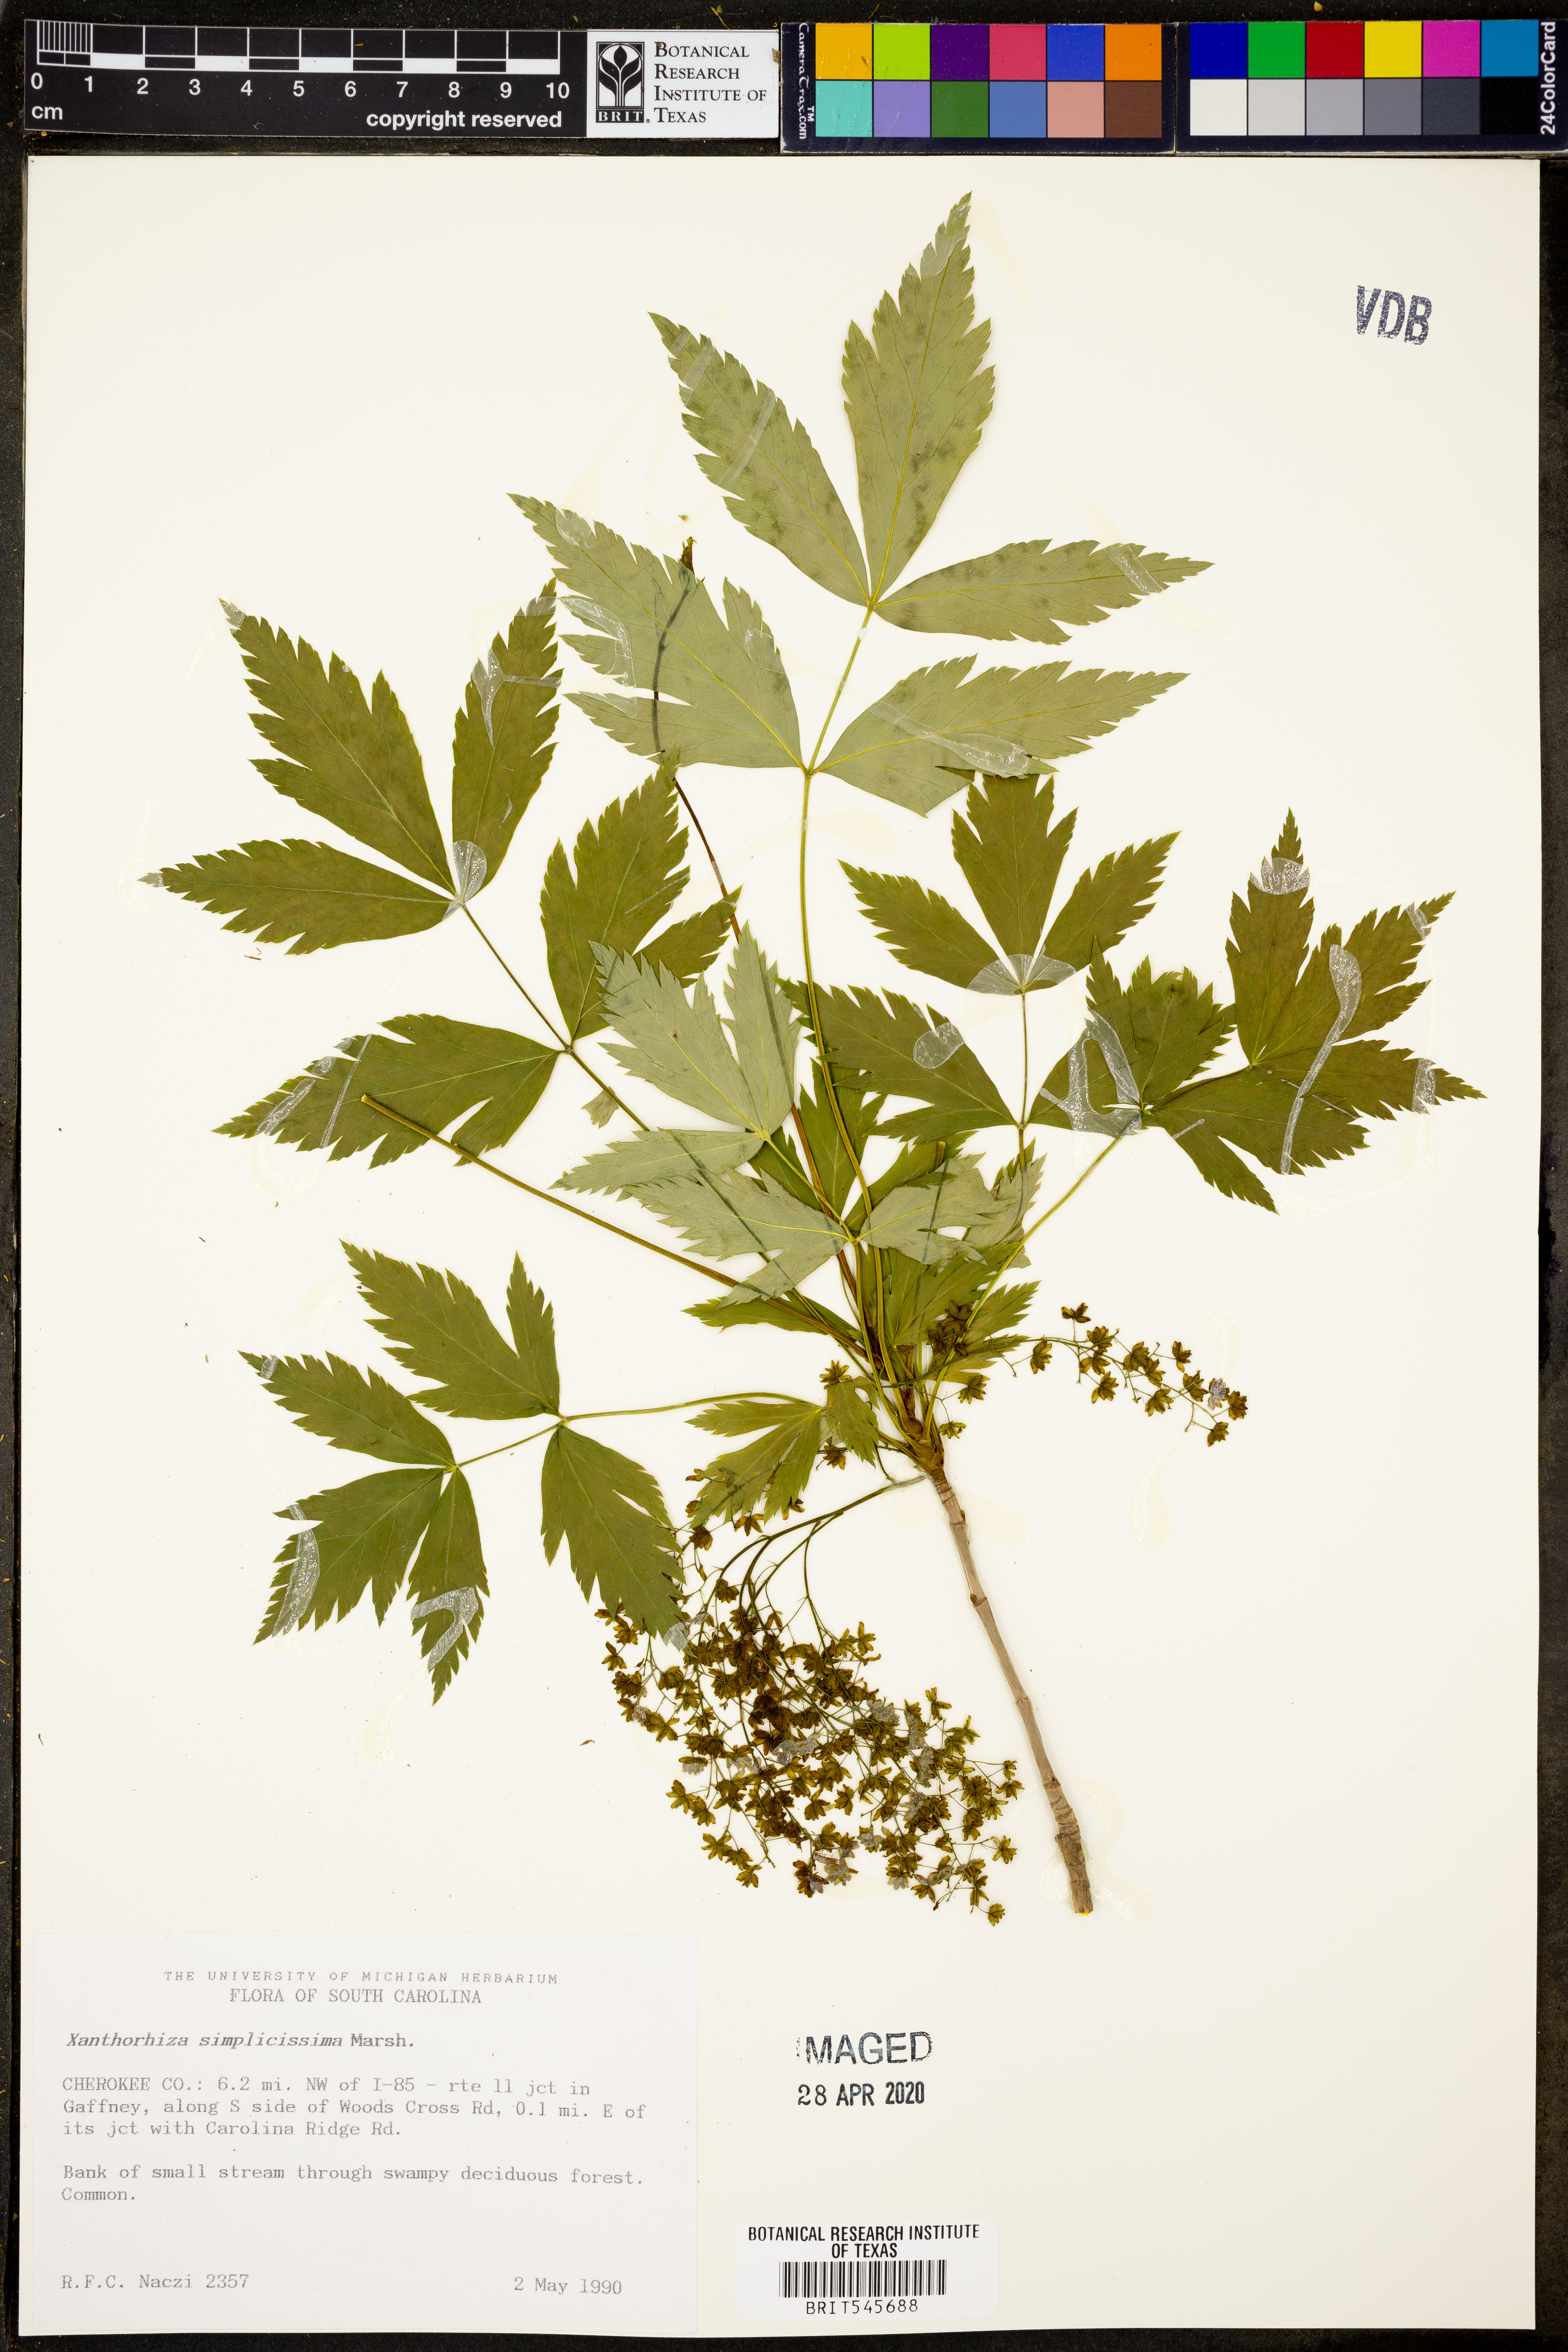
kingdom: Plantae
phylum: Tracheophyta
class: Magnoliopsida
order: Ranunculales
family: Ranunculaceae
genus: Xanthorhiza
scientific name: Xanthorhiza simplicissima
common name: Yellowroot
